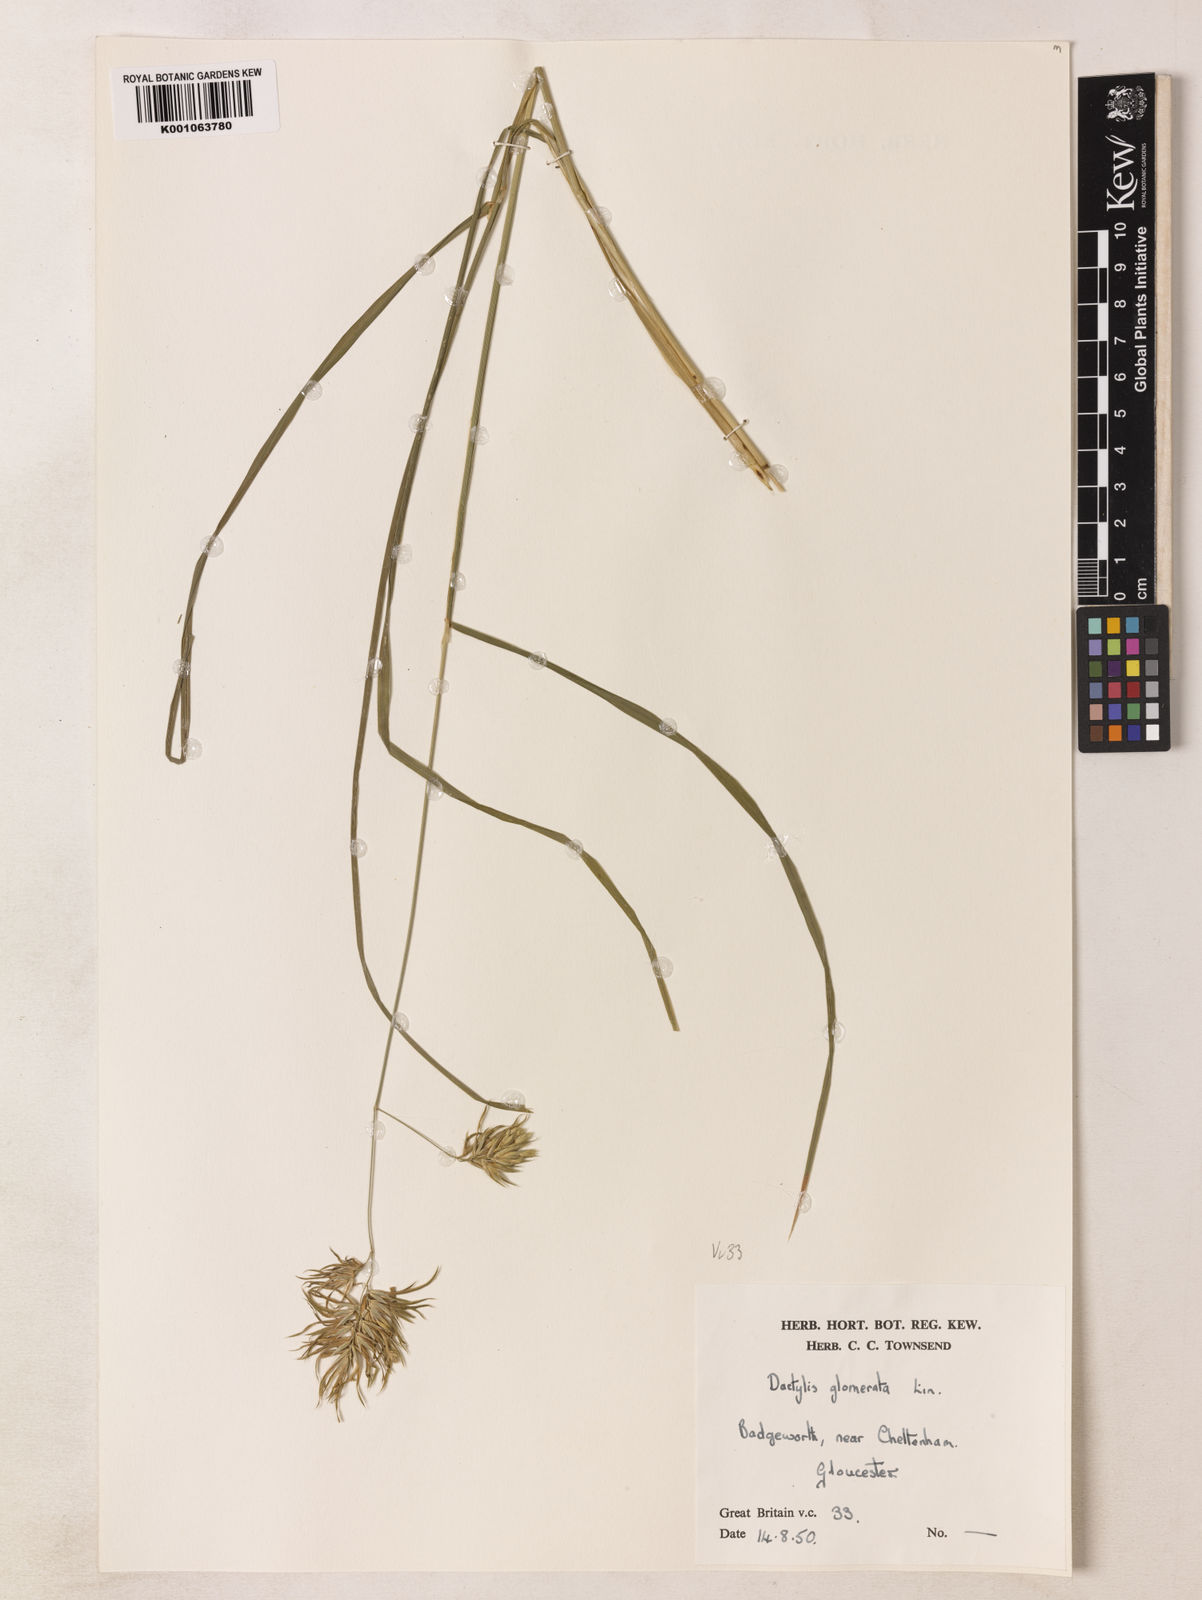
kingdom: Plantae
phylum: Tracheophyta
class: Liliopsida
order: Poales
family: Poaceae
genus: Dactylis
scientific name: Dactylis glomerata
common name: Orchardgrass
